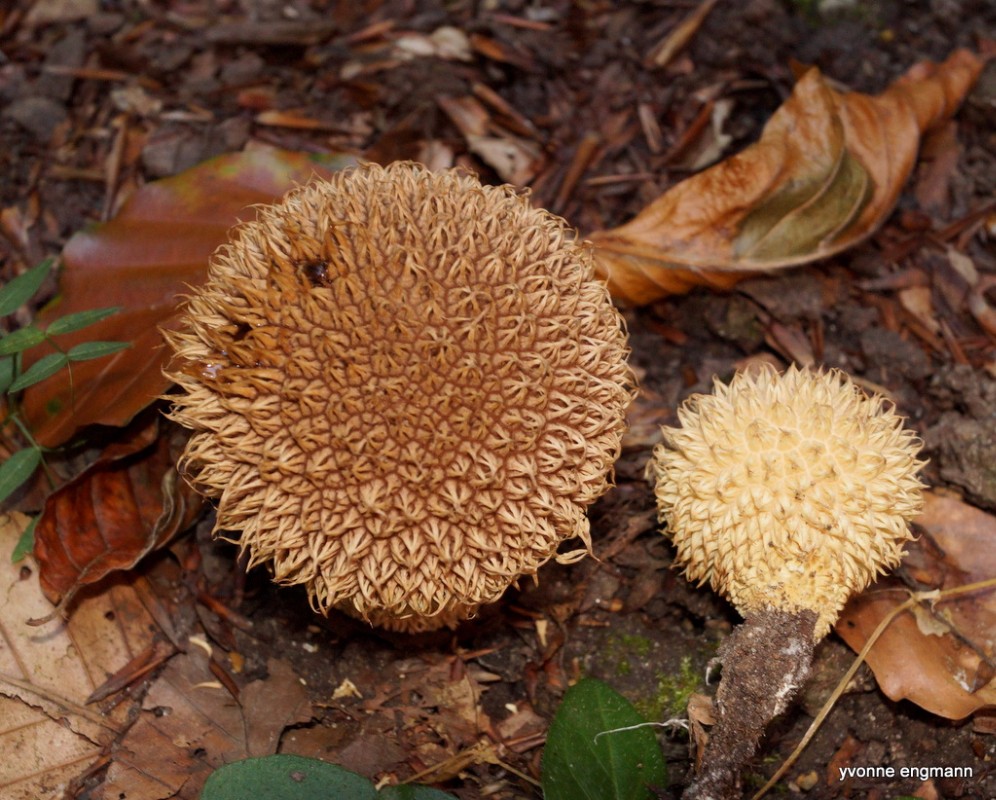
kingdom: Fungi
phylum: Basidiomycota
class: Agaricomycetes
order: Agaricales
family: Lycoperdaceae
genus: Lycoperdon
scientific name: Lycoperdon echinatum
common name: pindsvine-støvbold
